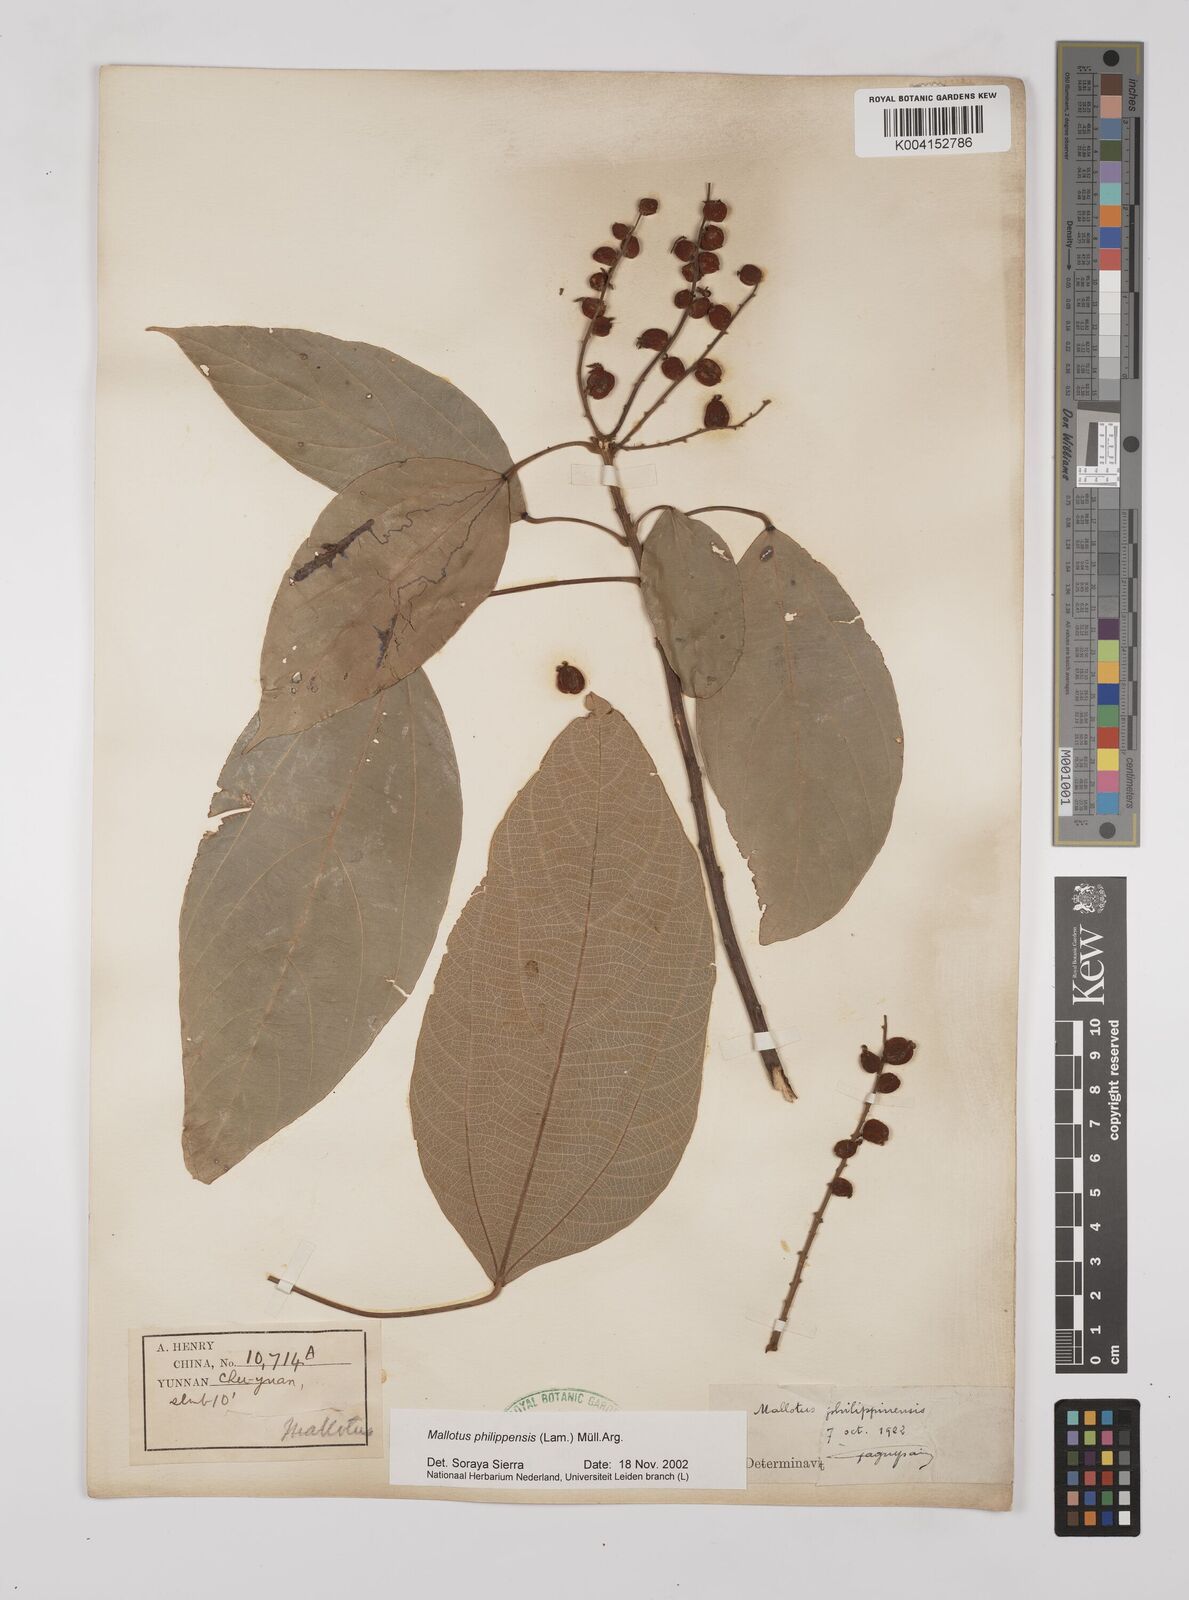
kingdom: Plantae
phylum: Tracheophyta
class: Magnoliopsida
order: Malpighiales
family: Euphorbiaceae
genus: Mallotus
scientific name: Mallotus philippensis
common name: Kamala tree
